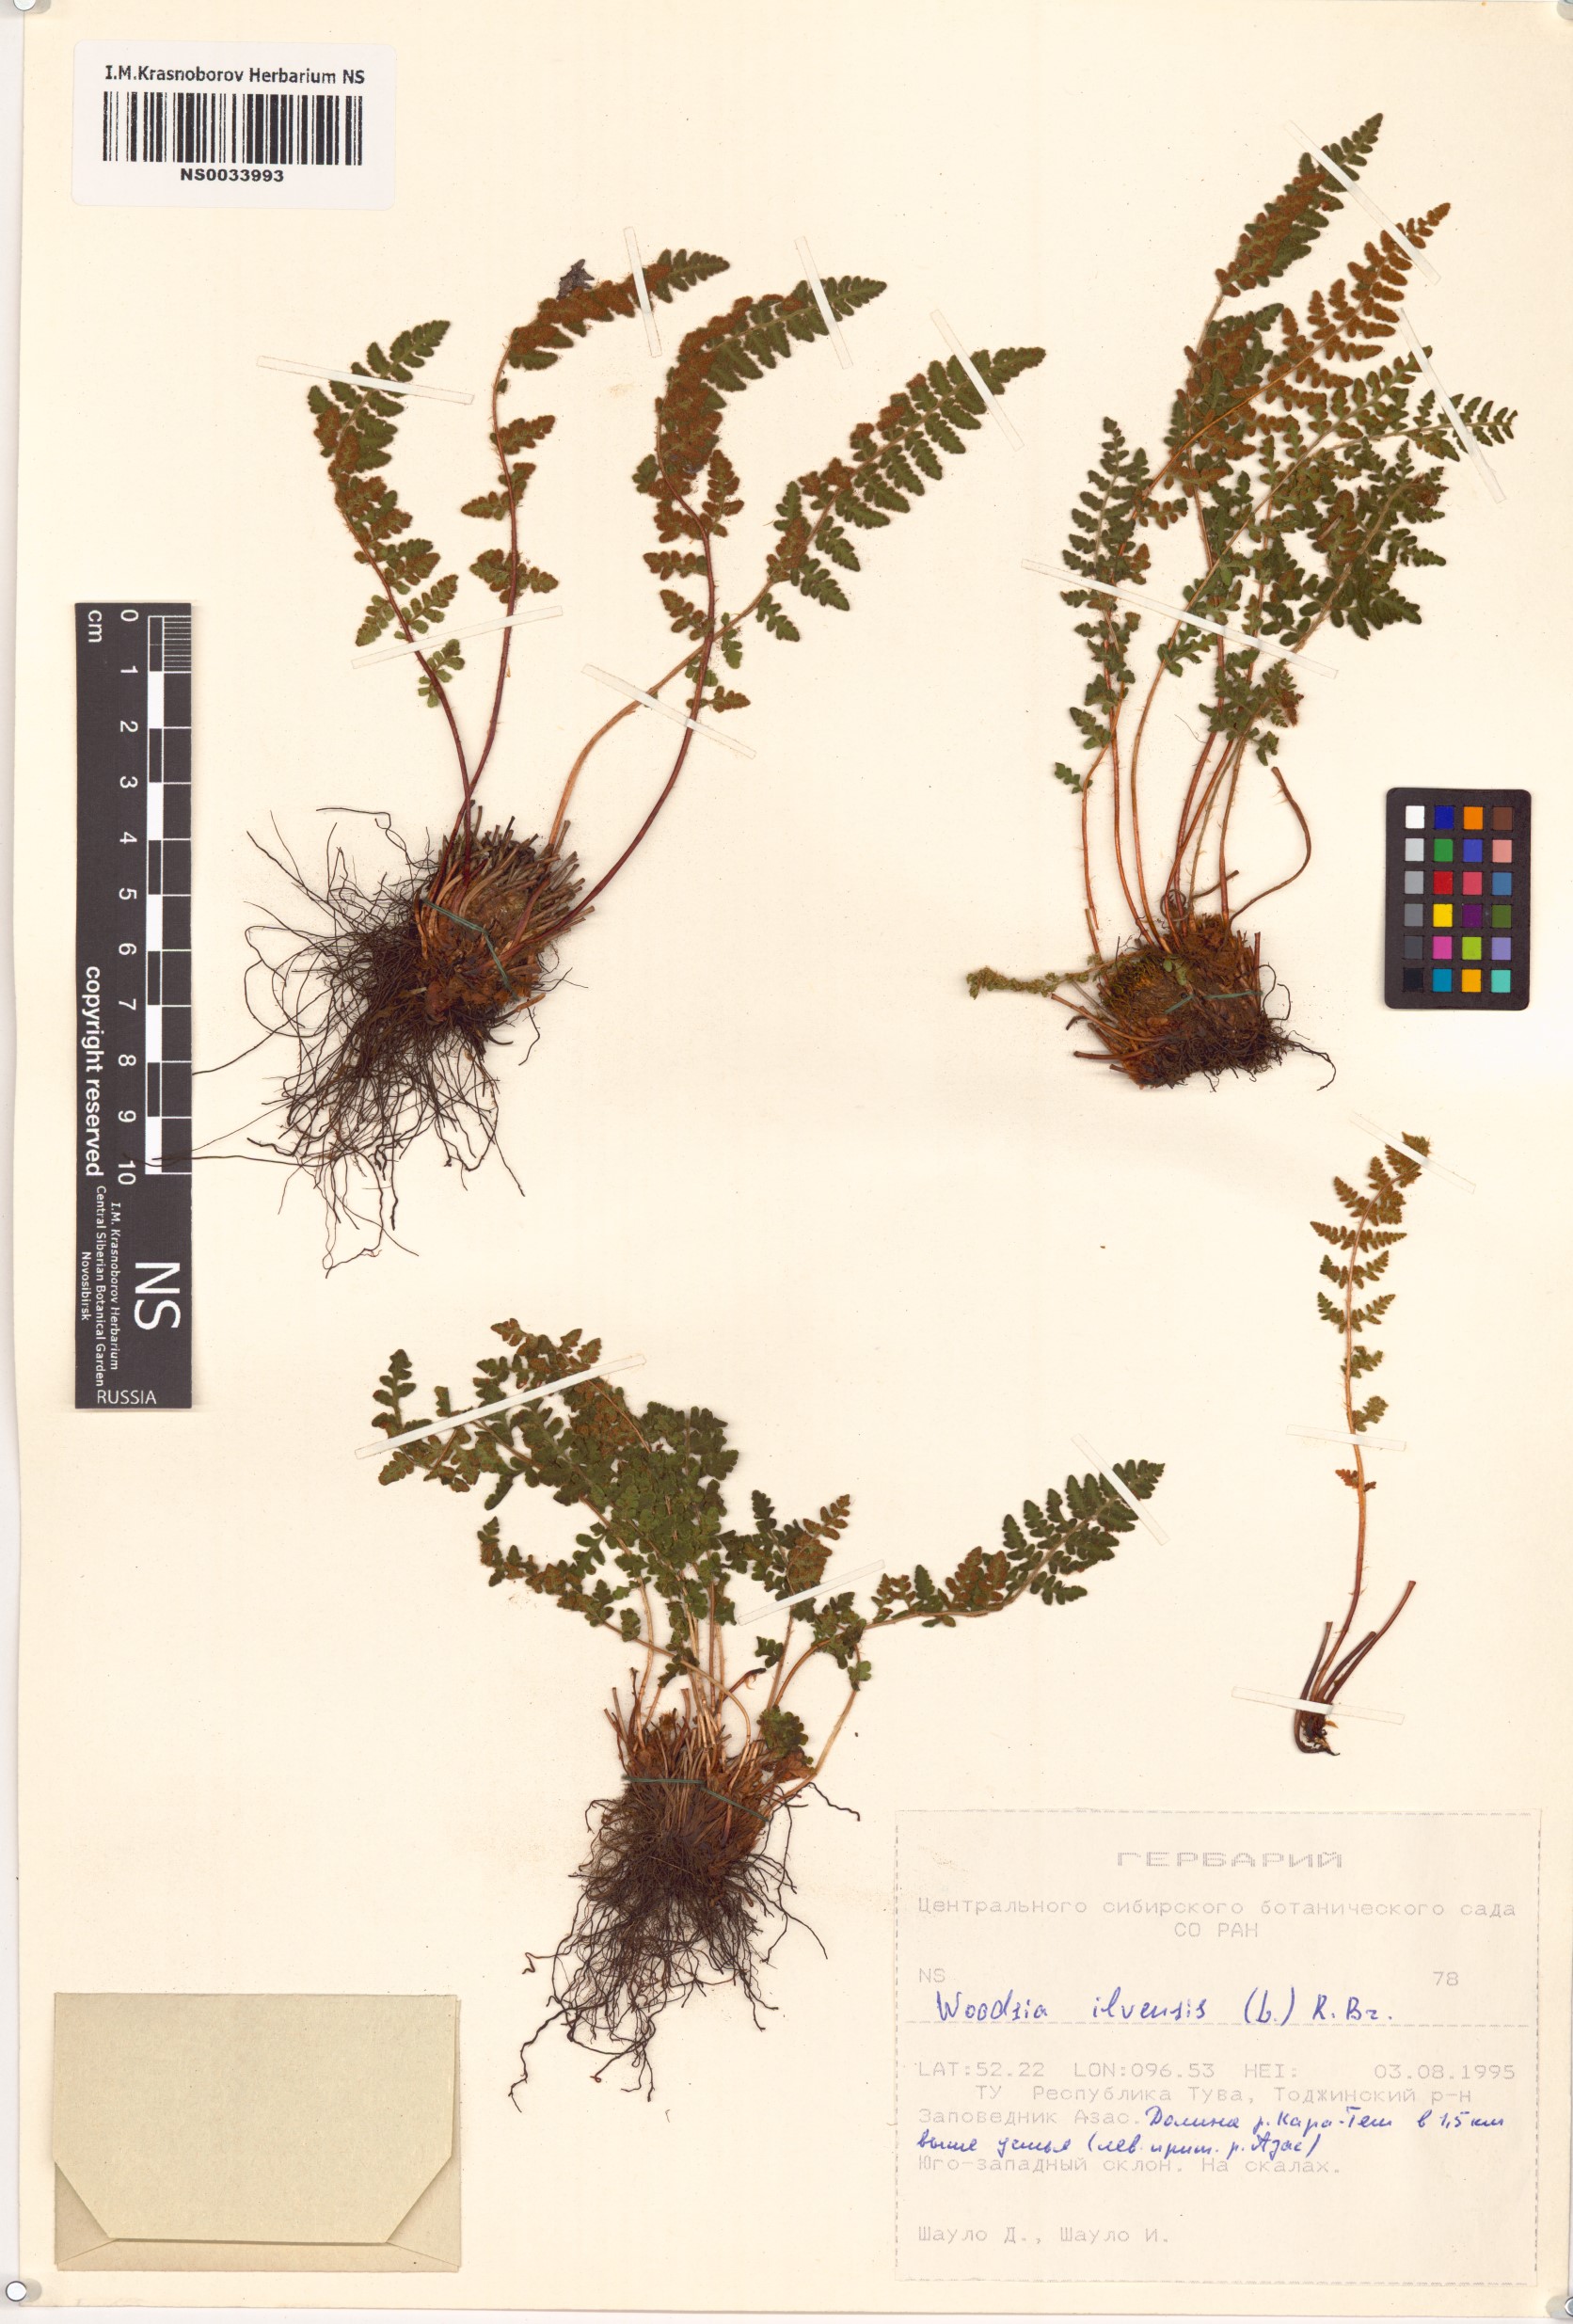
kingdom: Plantae
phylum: Tracheophyta
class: Polypodiopsida
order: Polypodiales
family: Woodsiaceae
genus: Woodsia
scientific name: Woodsia ilvensis
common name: Fragrant woodsia
